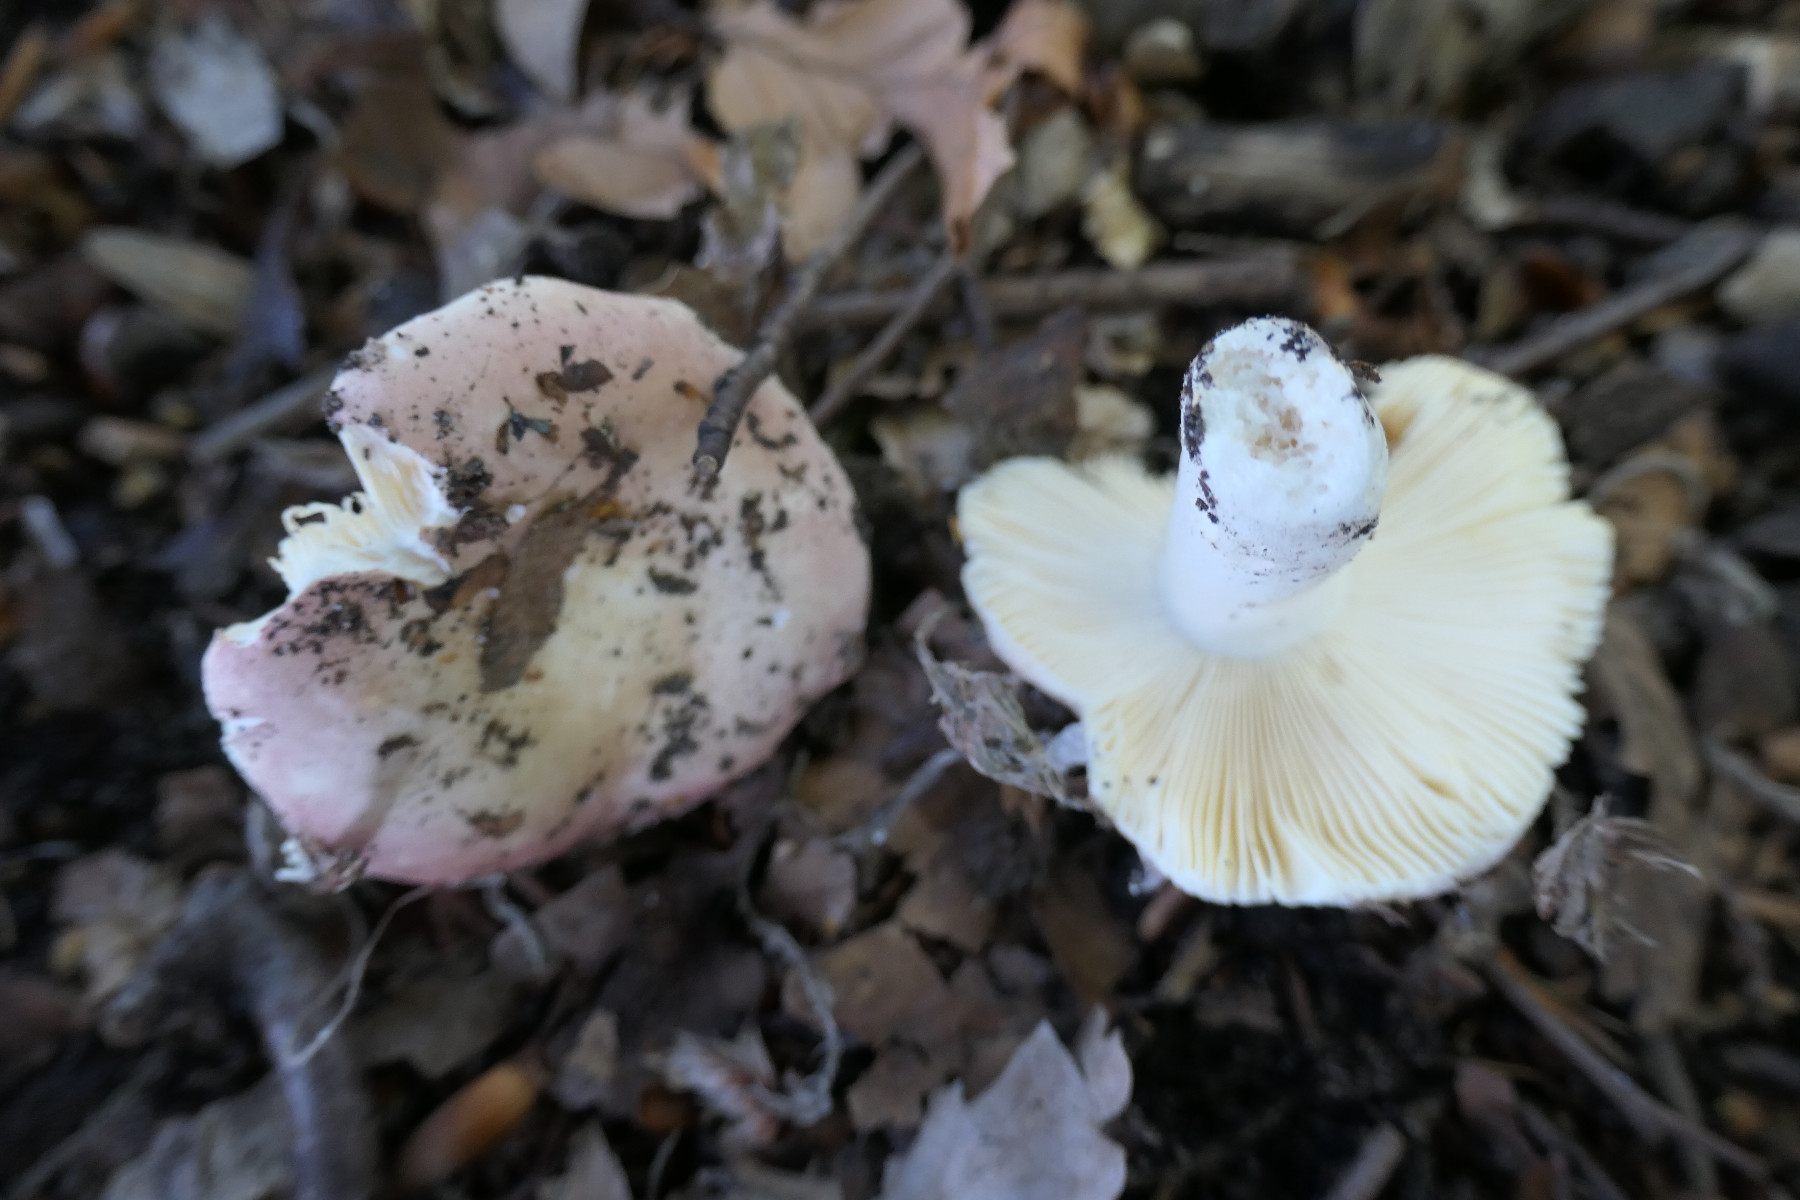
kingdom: Fungi
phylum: Basidiomycota
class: Agaricomycetes
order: Russulales
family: Russulaceae
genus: Russula
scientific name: Russula veternosa
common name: blødkødet skørhat
